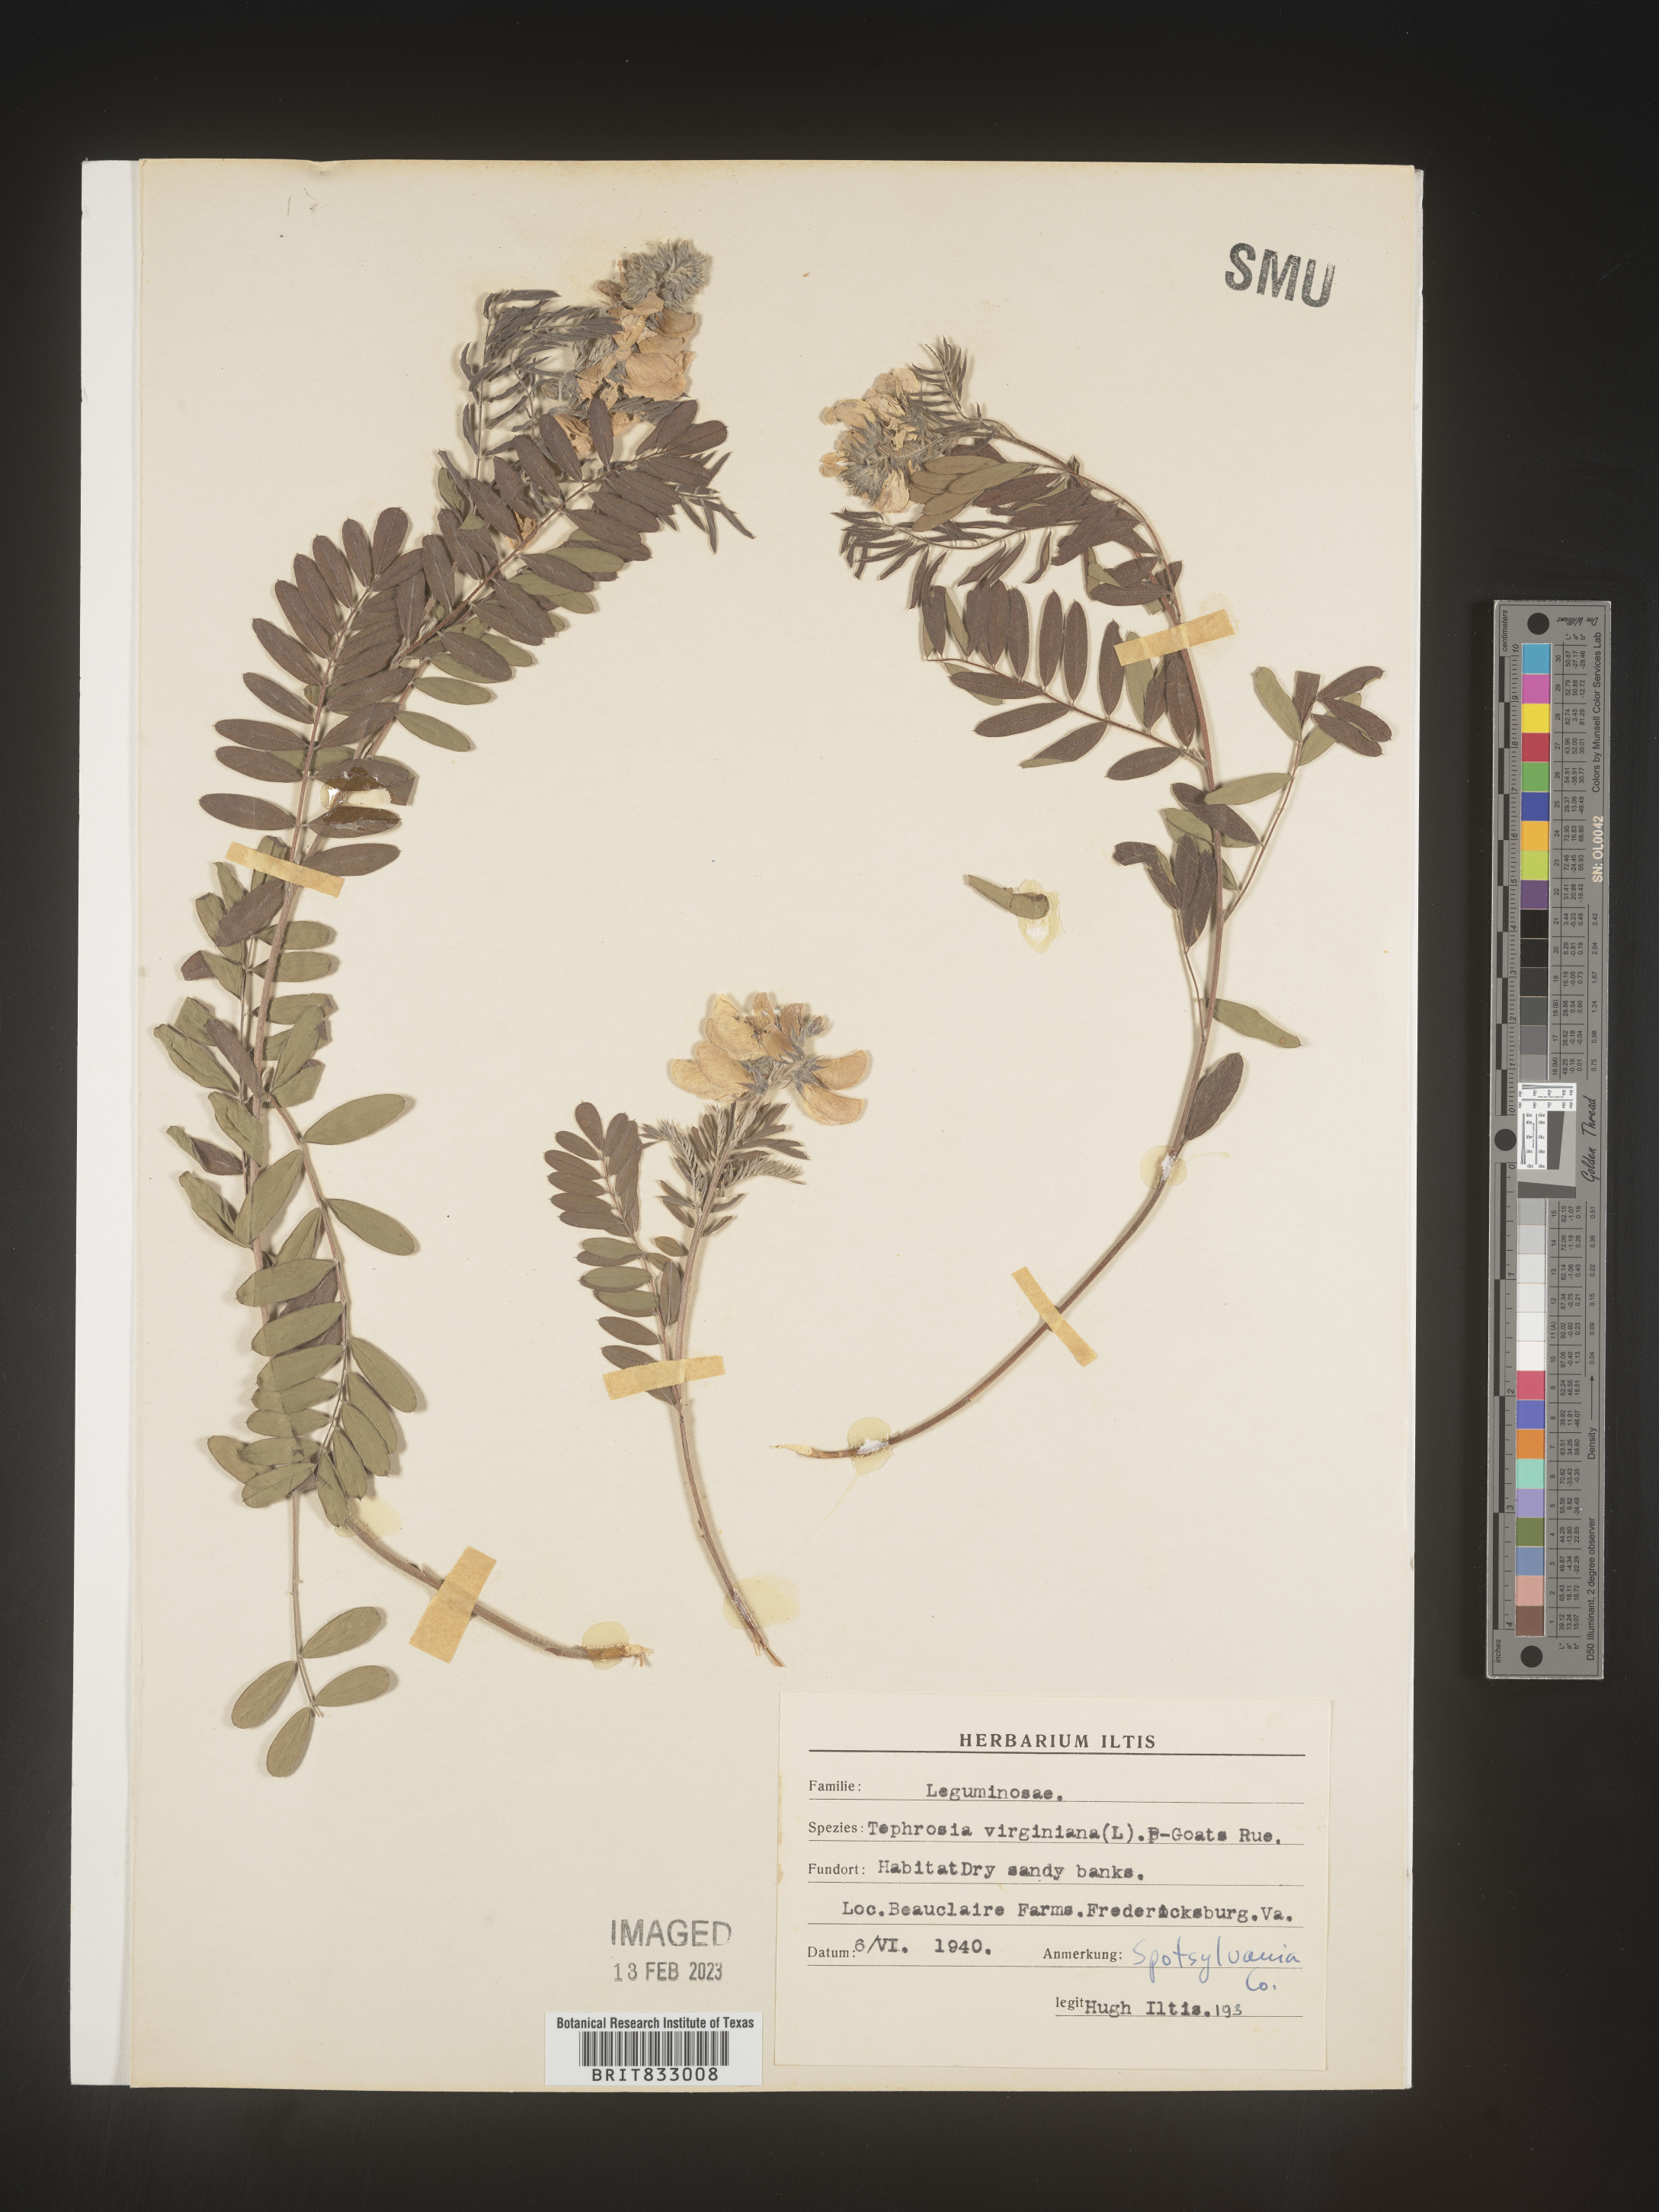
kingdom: Plantae
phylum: Tracheophyta
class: Magnoliopsida
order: Fabales
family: Fabaceae
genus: Tephrosia
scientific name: Tephrosia virginiana
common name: Rabbit-pea
